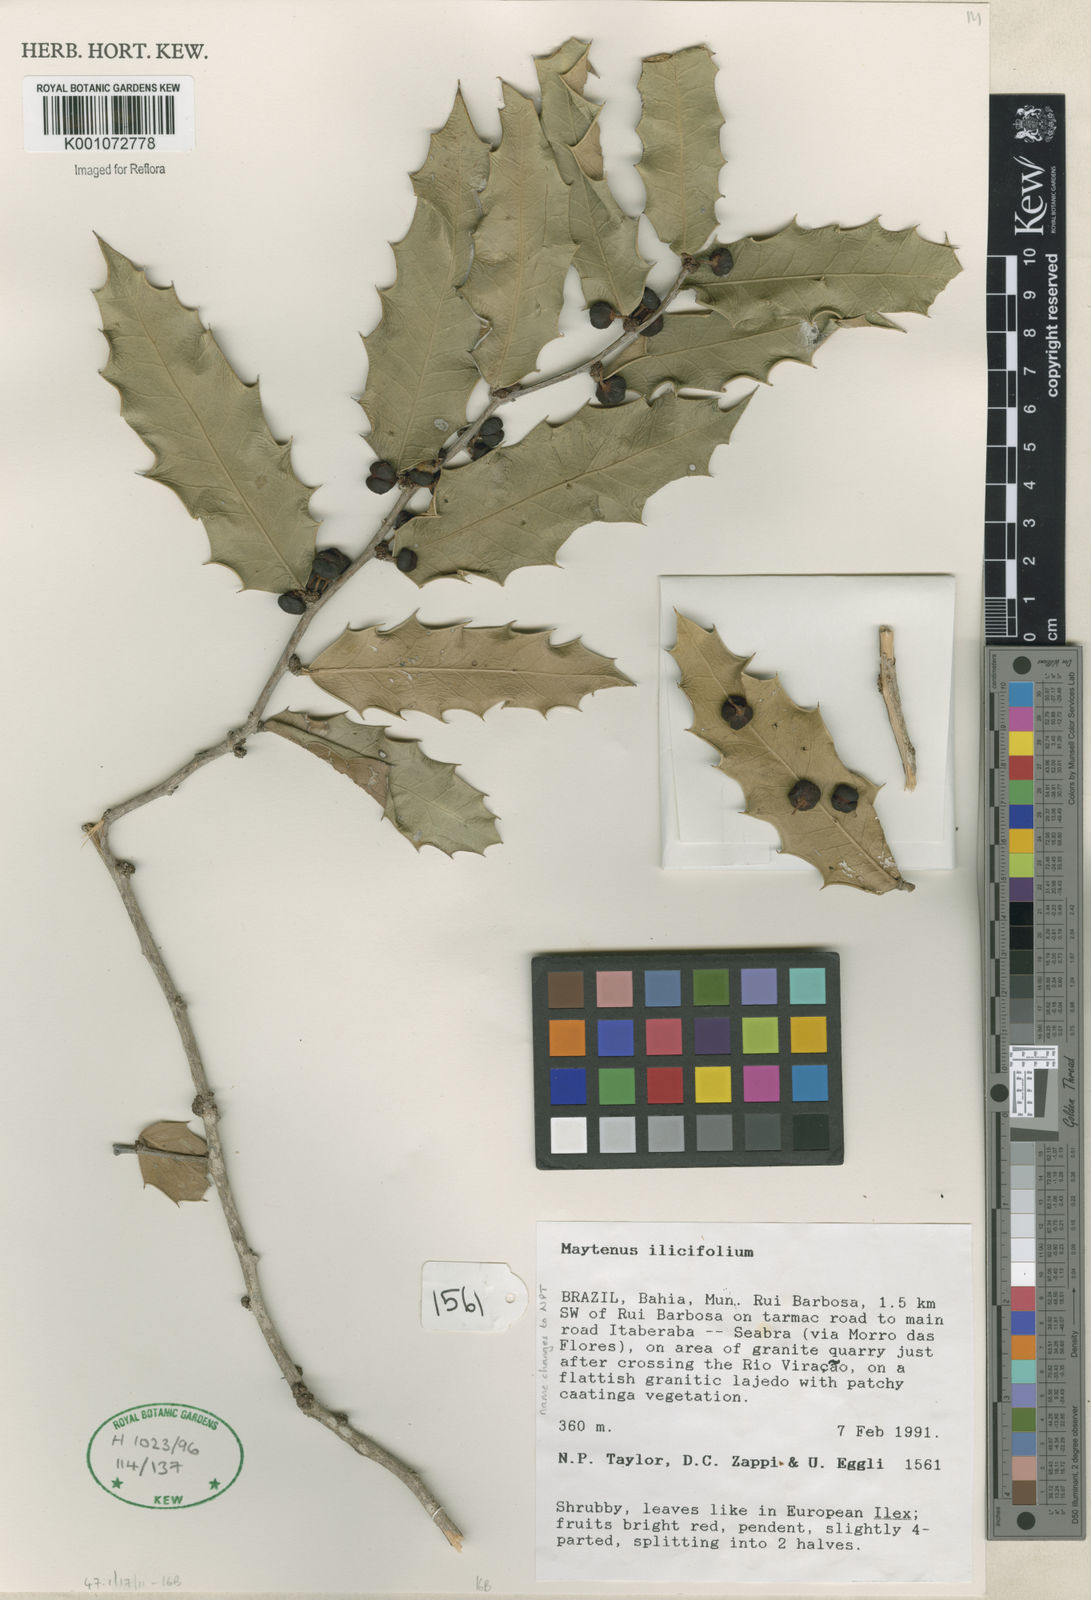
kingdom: Plantae
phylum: Tracheophyta
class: Magnoliopsida
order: Celastrales
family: Celastraceae
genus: Monteverdia
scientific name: Monteverdia ilicifolia
